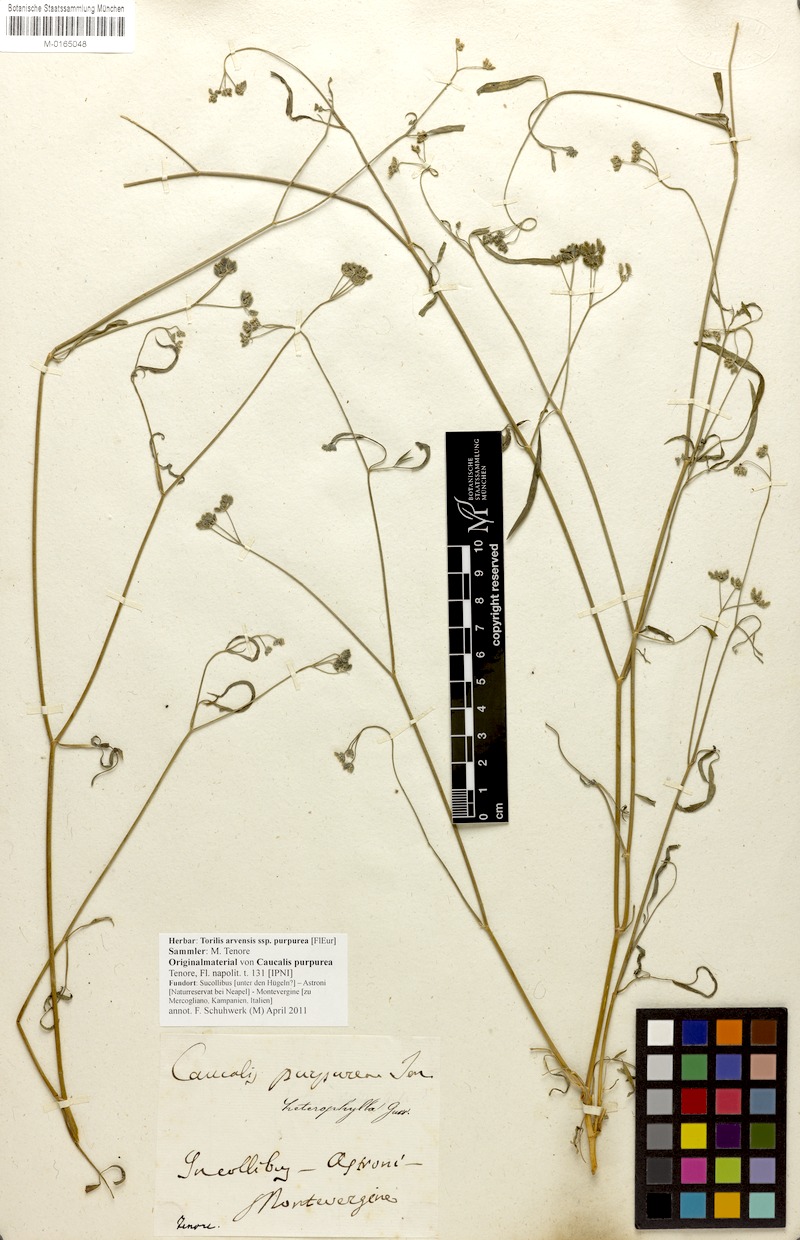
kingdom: Plantae
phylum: Tracheophyta
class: Magnoliopsida
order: Apiales
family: Apiaceae
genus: Torilis
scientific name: Torilis arvensis
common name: Spreading hedge-parsley
